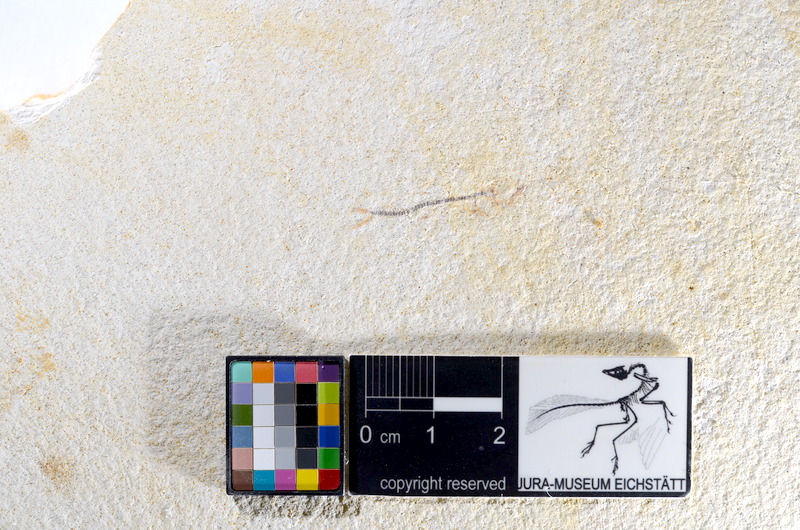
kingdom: Animalia
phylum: Chordata
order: Salmoniformes
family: Orthogonikleithridae
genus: Orthogonikleithrus
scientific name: Orthogonikleithrus hoelli
